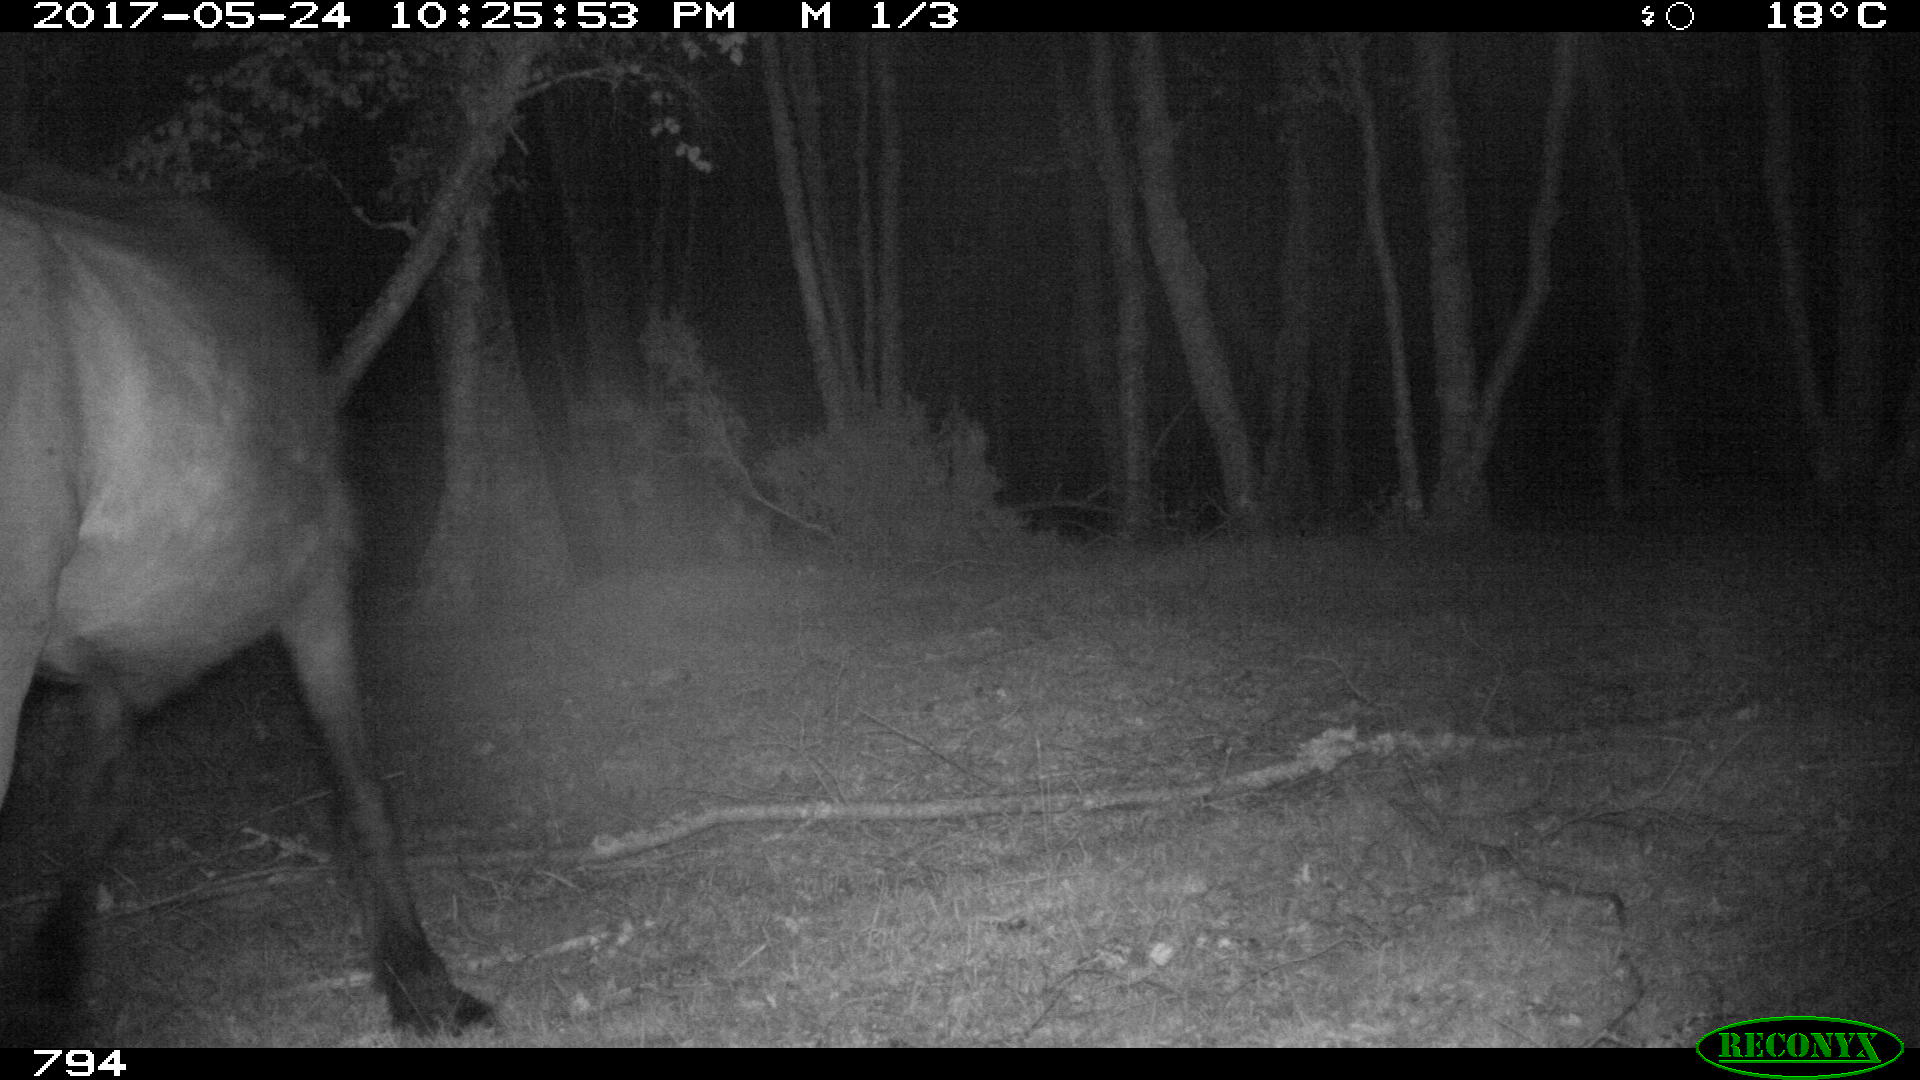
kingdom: Animalia
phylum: Chordata
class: Mammalia
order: Perissodactyla
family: Equidae
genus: Equus
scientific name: Equus caballus
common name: Horse
